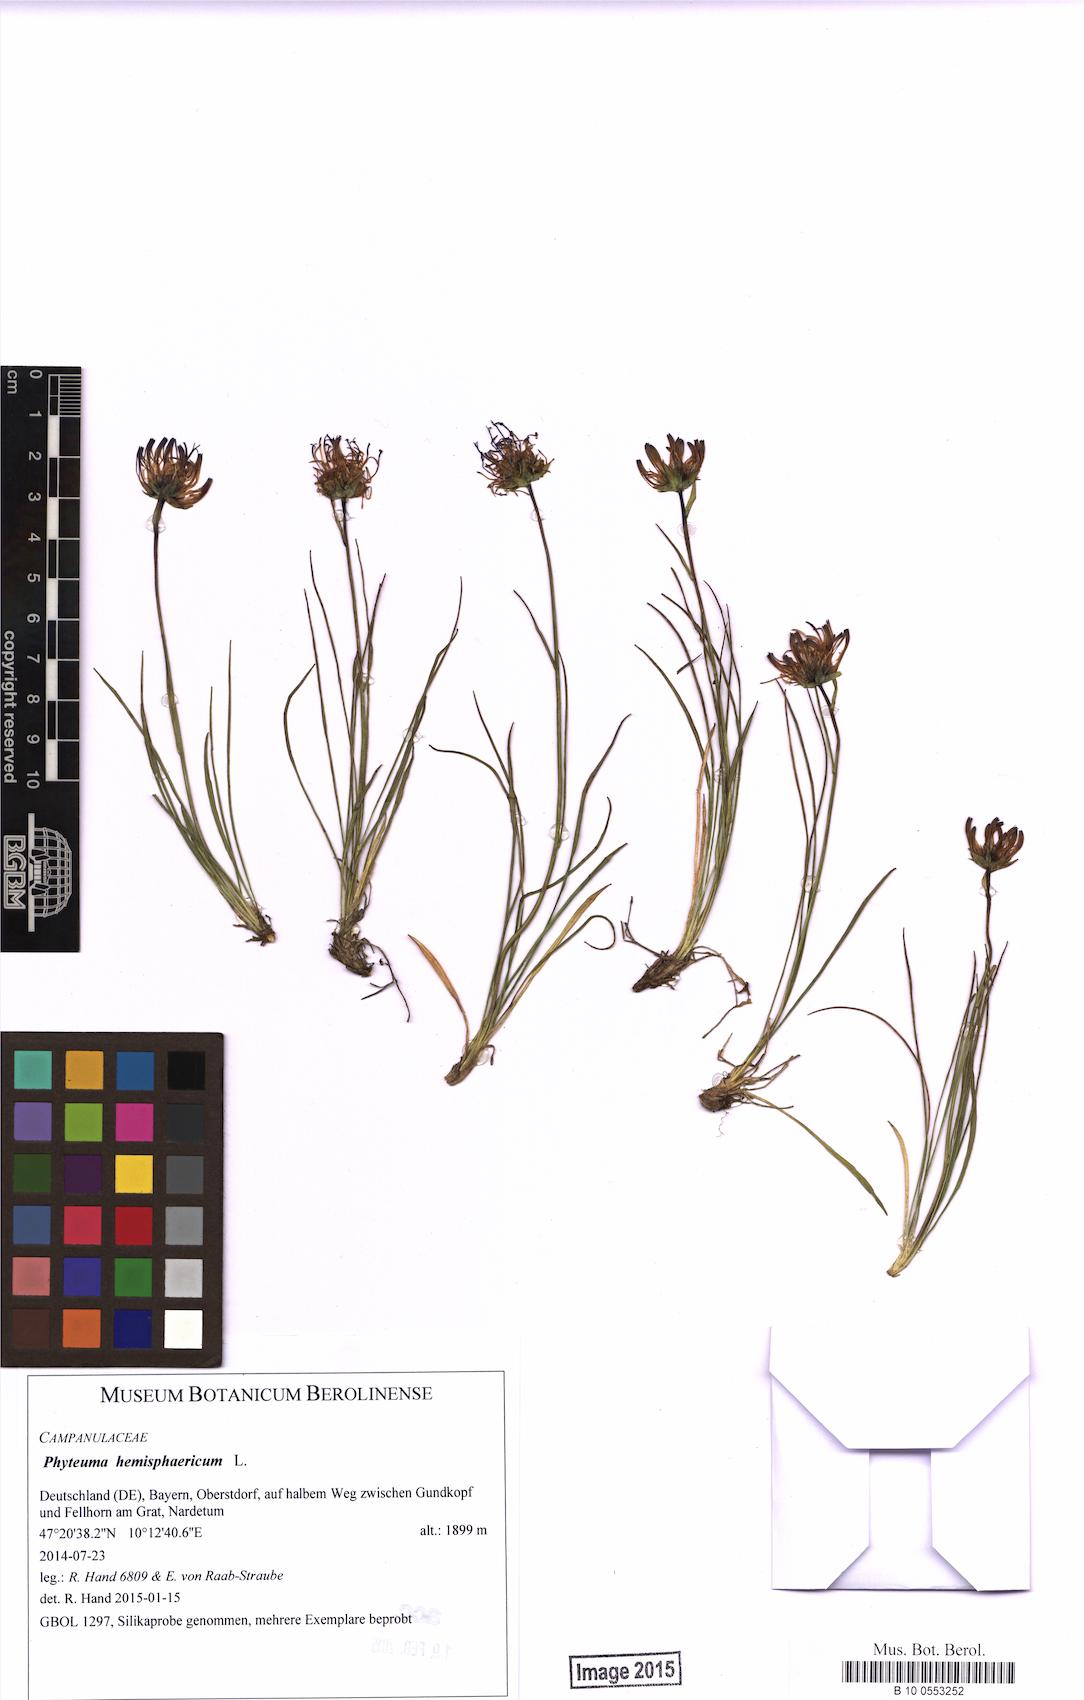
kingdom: Plantae
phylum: Tracheophyta
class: Magnoliopsida
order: Asterales
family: Campanulaceae
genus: Phyteuma
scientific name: Phyteuma hemisphaericum
